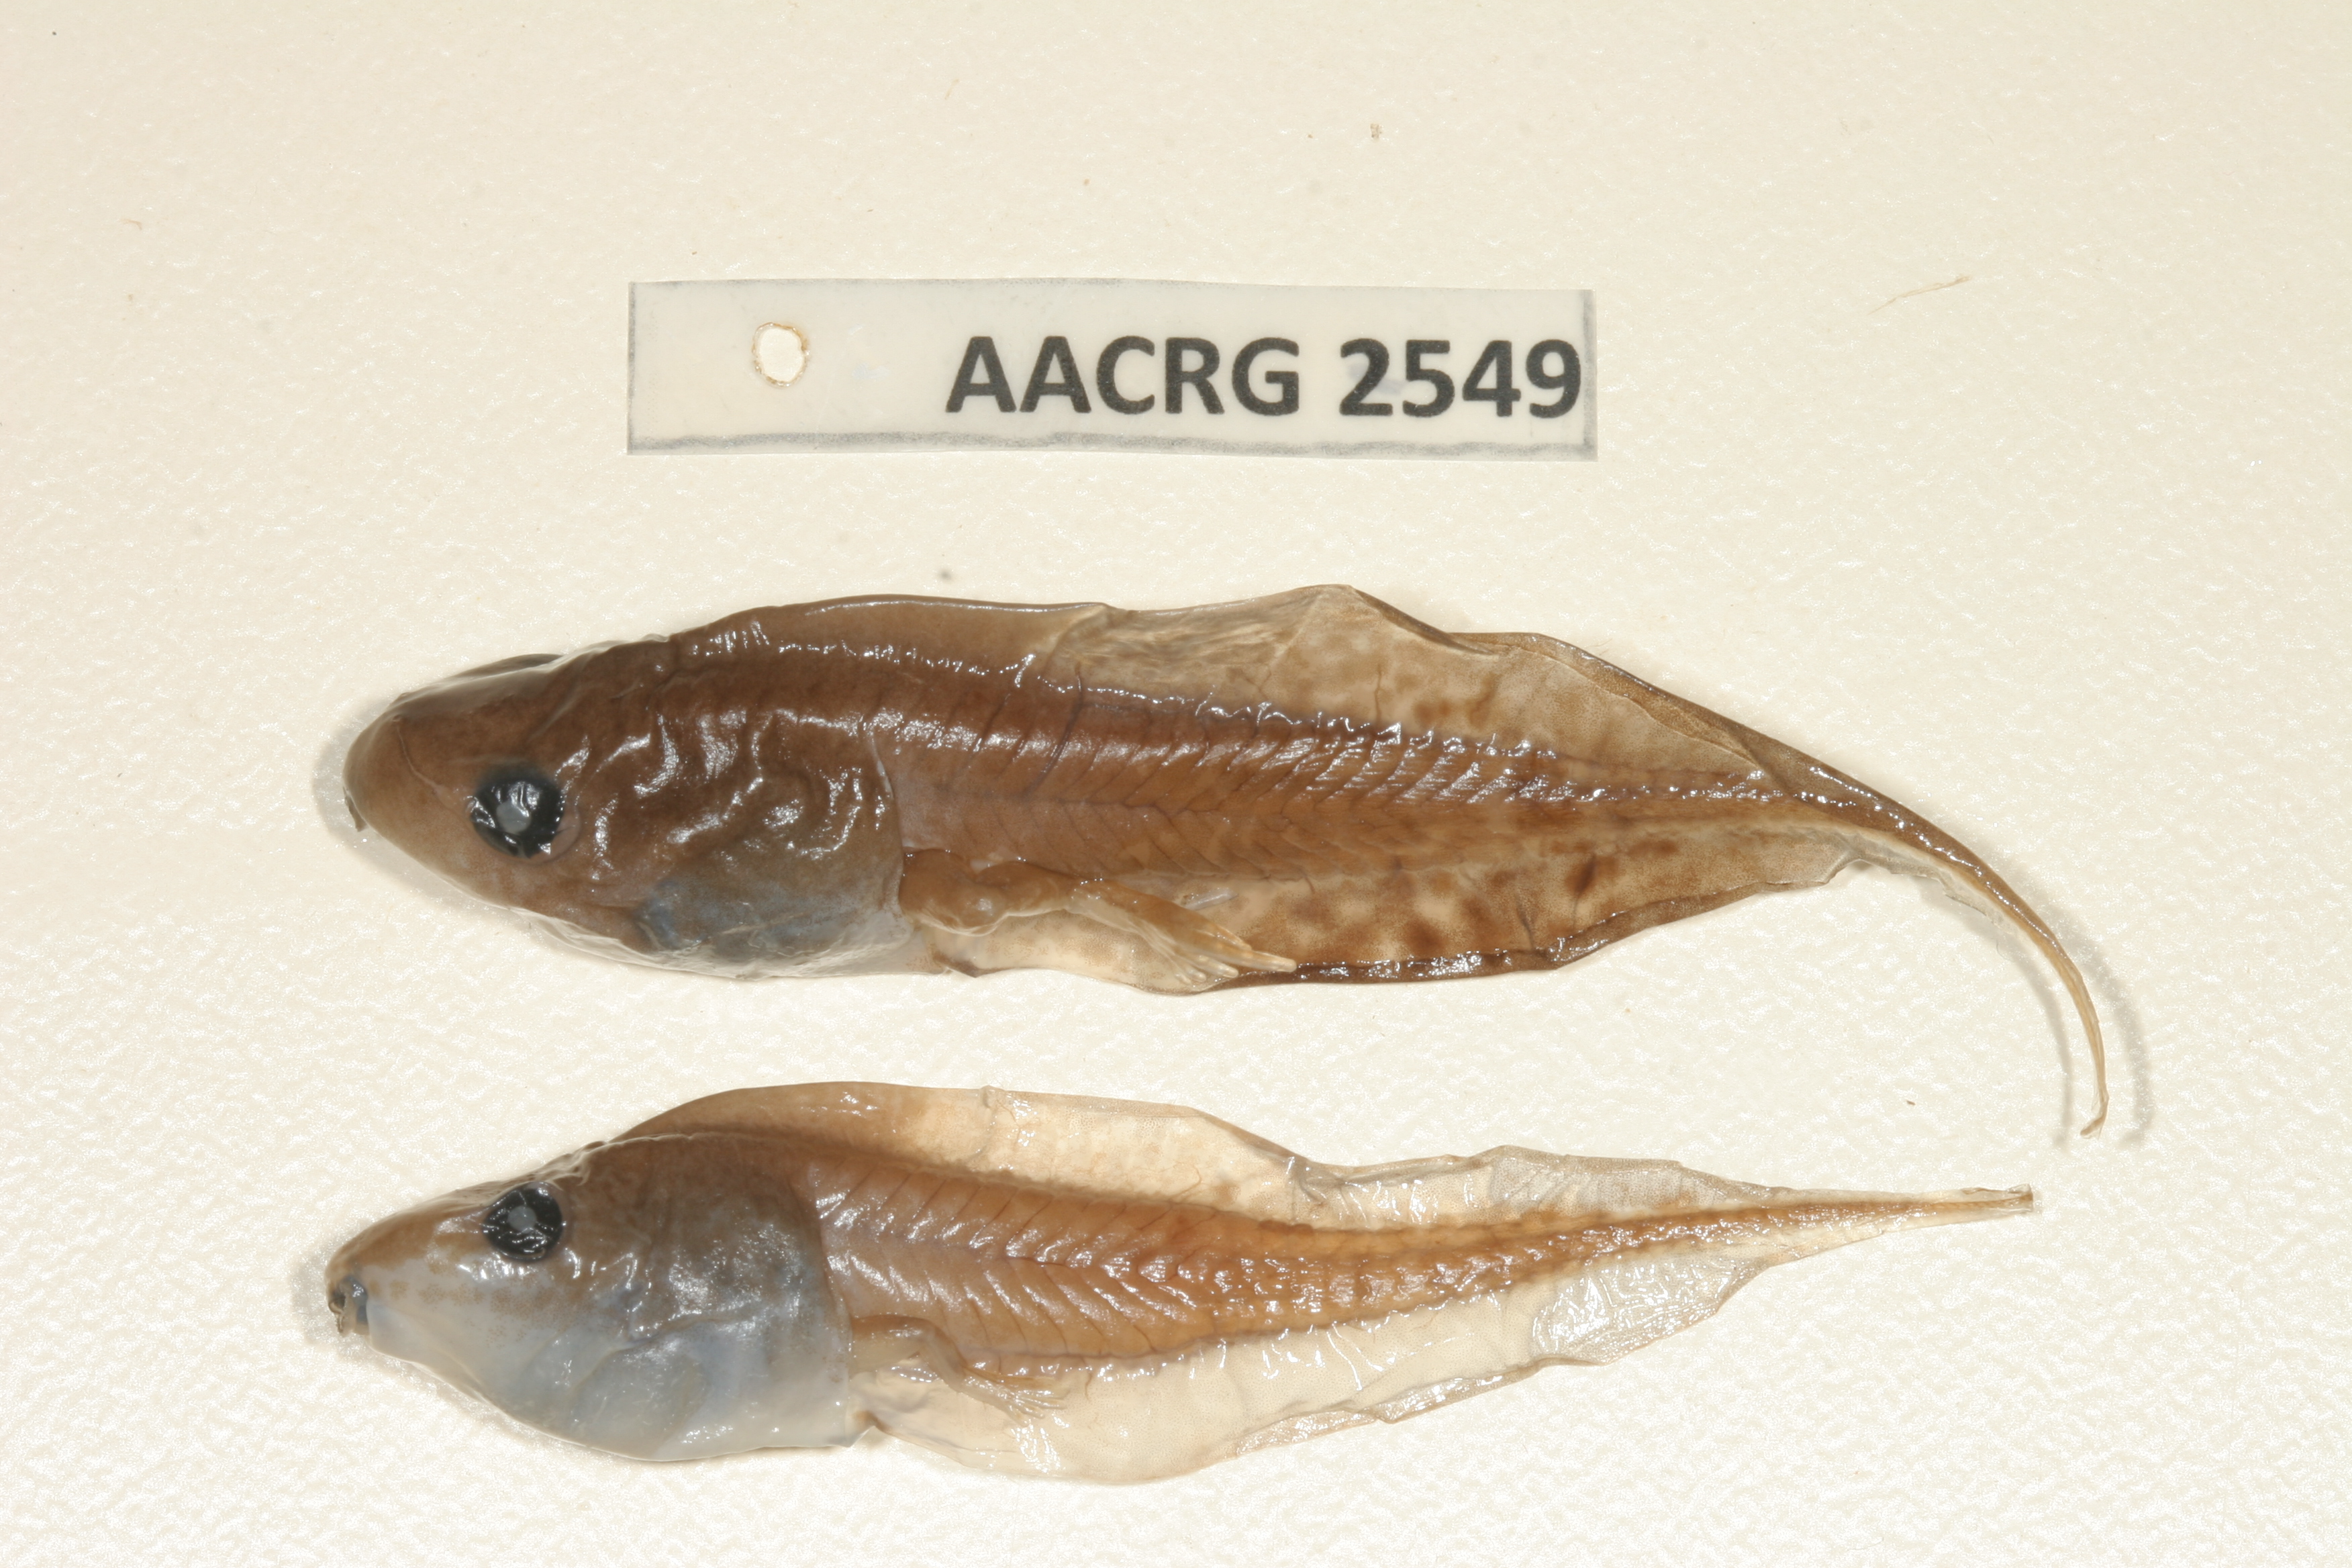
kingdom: Animalia
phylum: Chordata
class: Amphibia
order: Anura
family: Hyperoliidae
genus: Kassina
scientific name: Kassina senegalensis
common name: Senegal land frog
